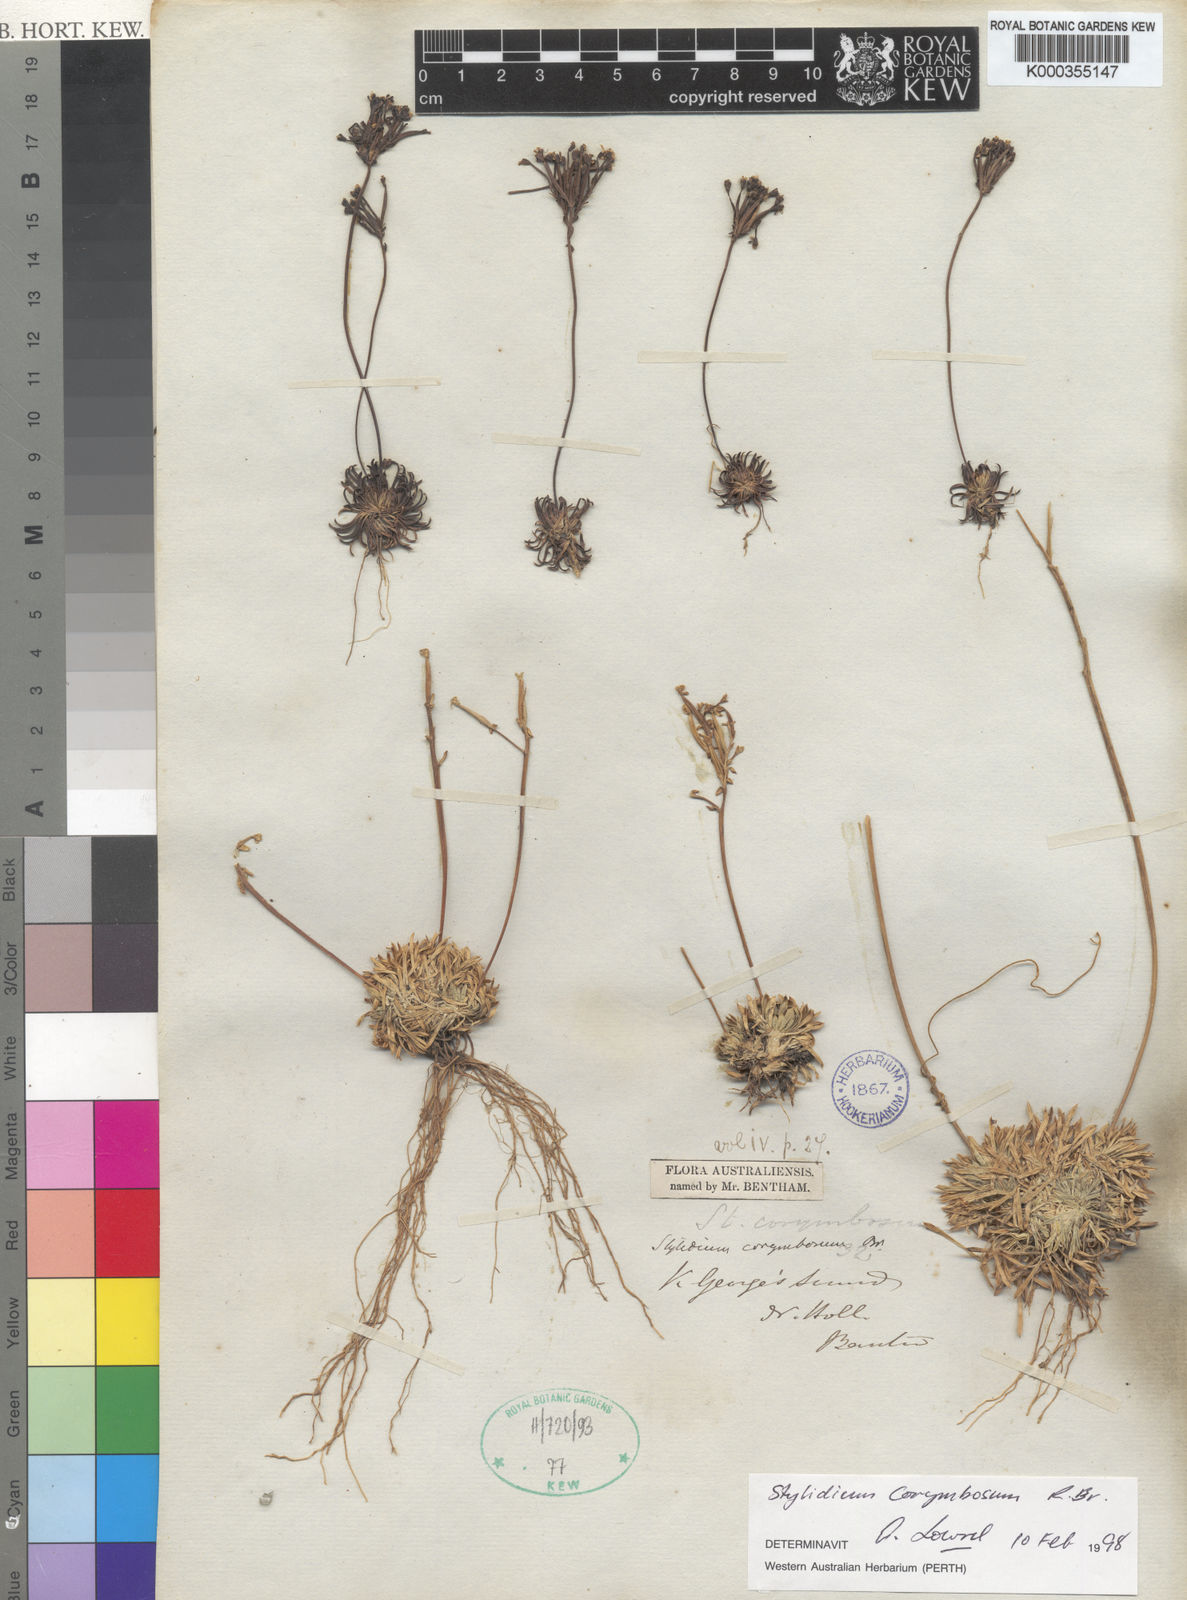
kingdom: Plantae
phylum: Tracheophyta
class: Magnoliopsida
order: Asterales
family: Stylidiaceae
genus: Stylidium
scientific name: Stylidium corymbosum
